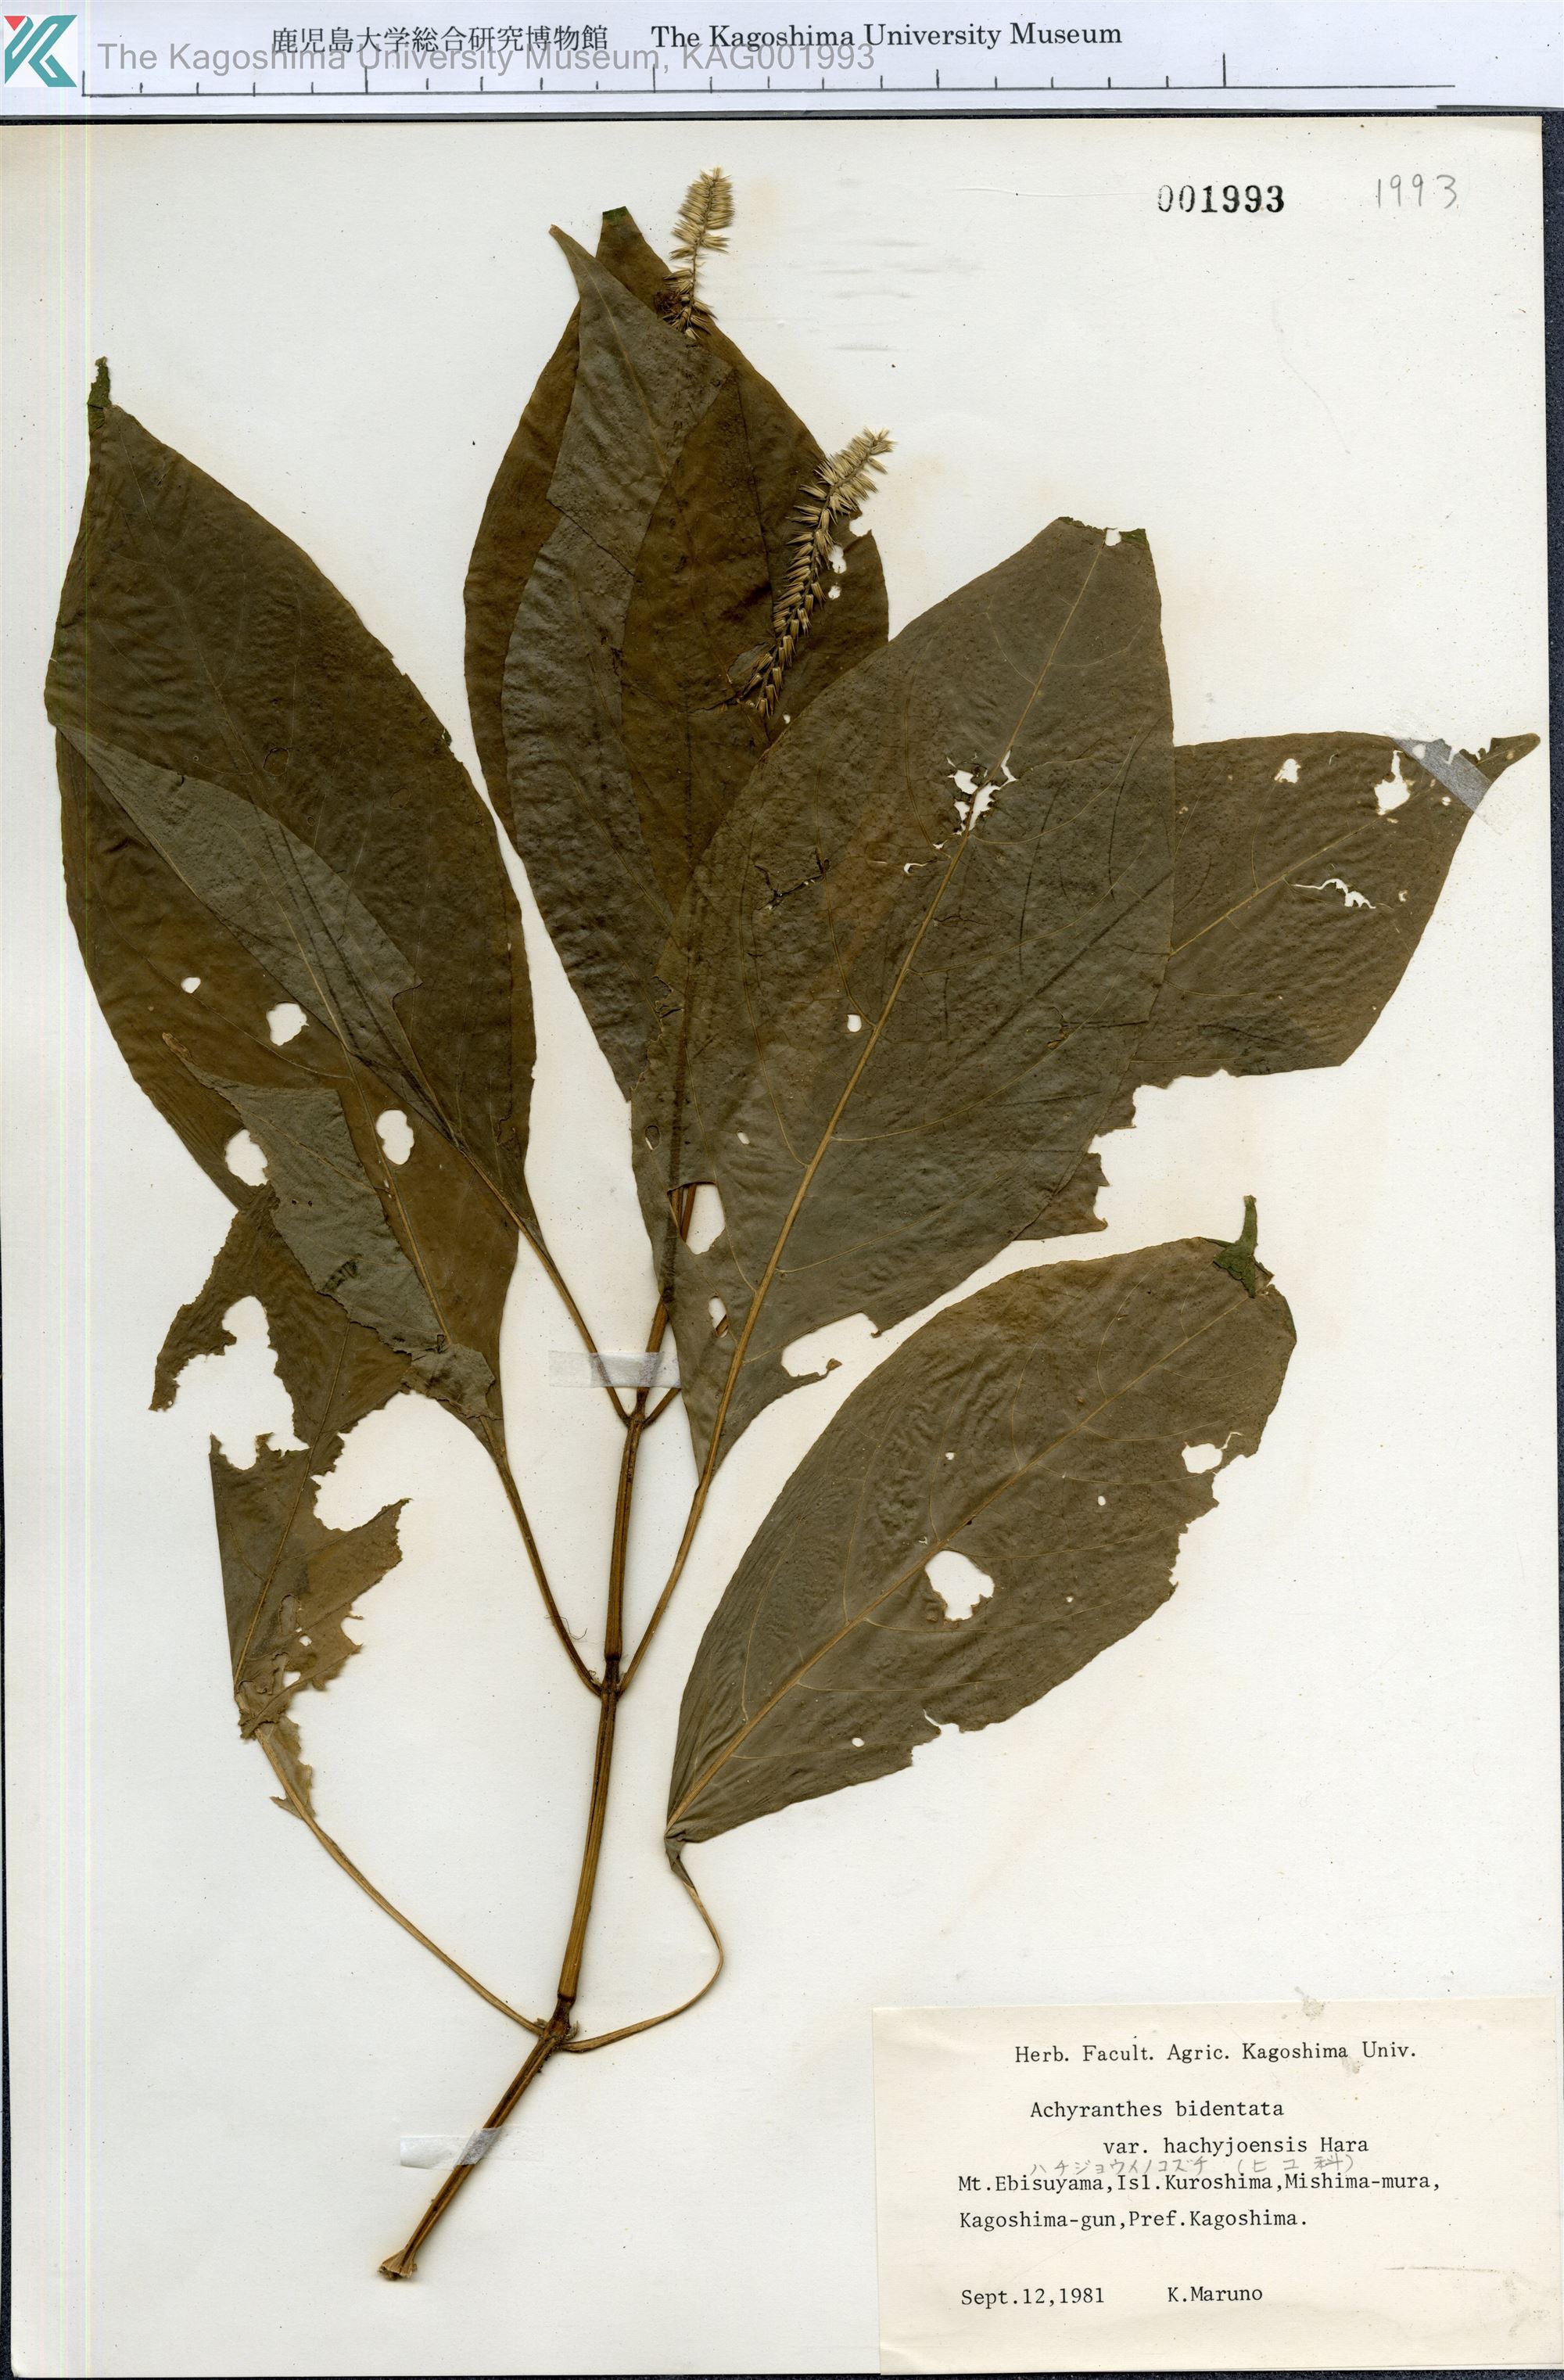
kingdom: Plantae
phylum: Tracheophyta
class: Magnoliopsida
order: Caryophyllales
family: Amaranthaceae
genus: Achyranthes
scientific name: Achyranthes bidentata
